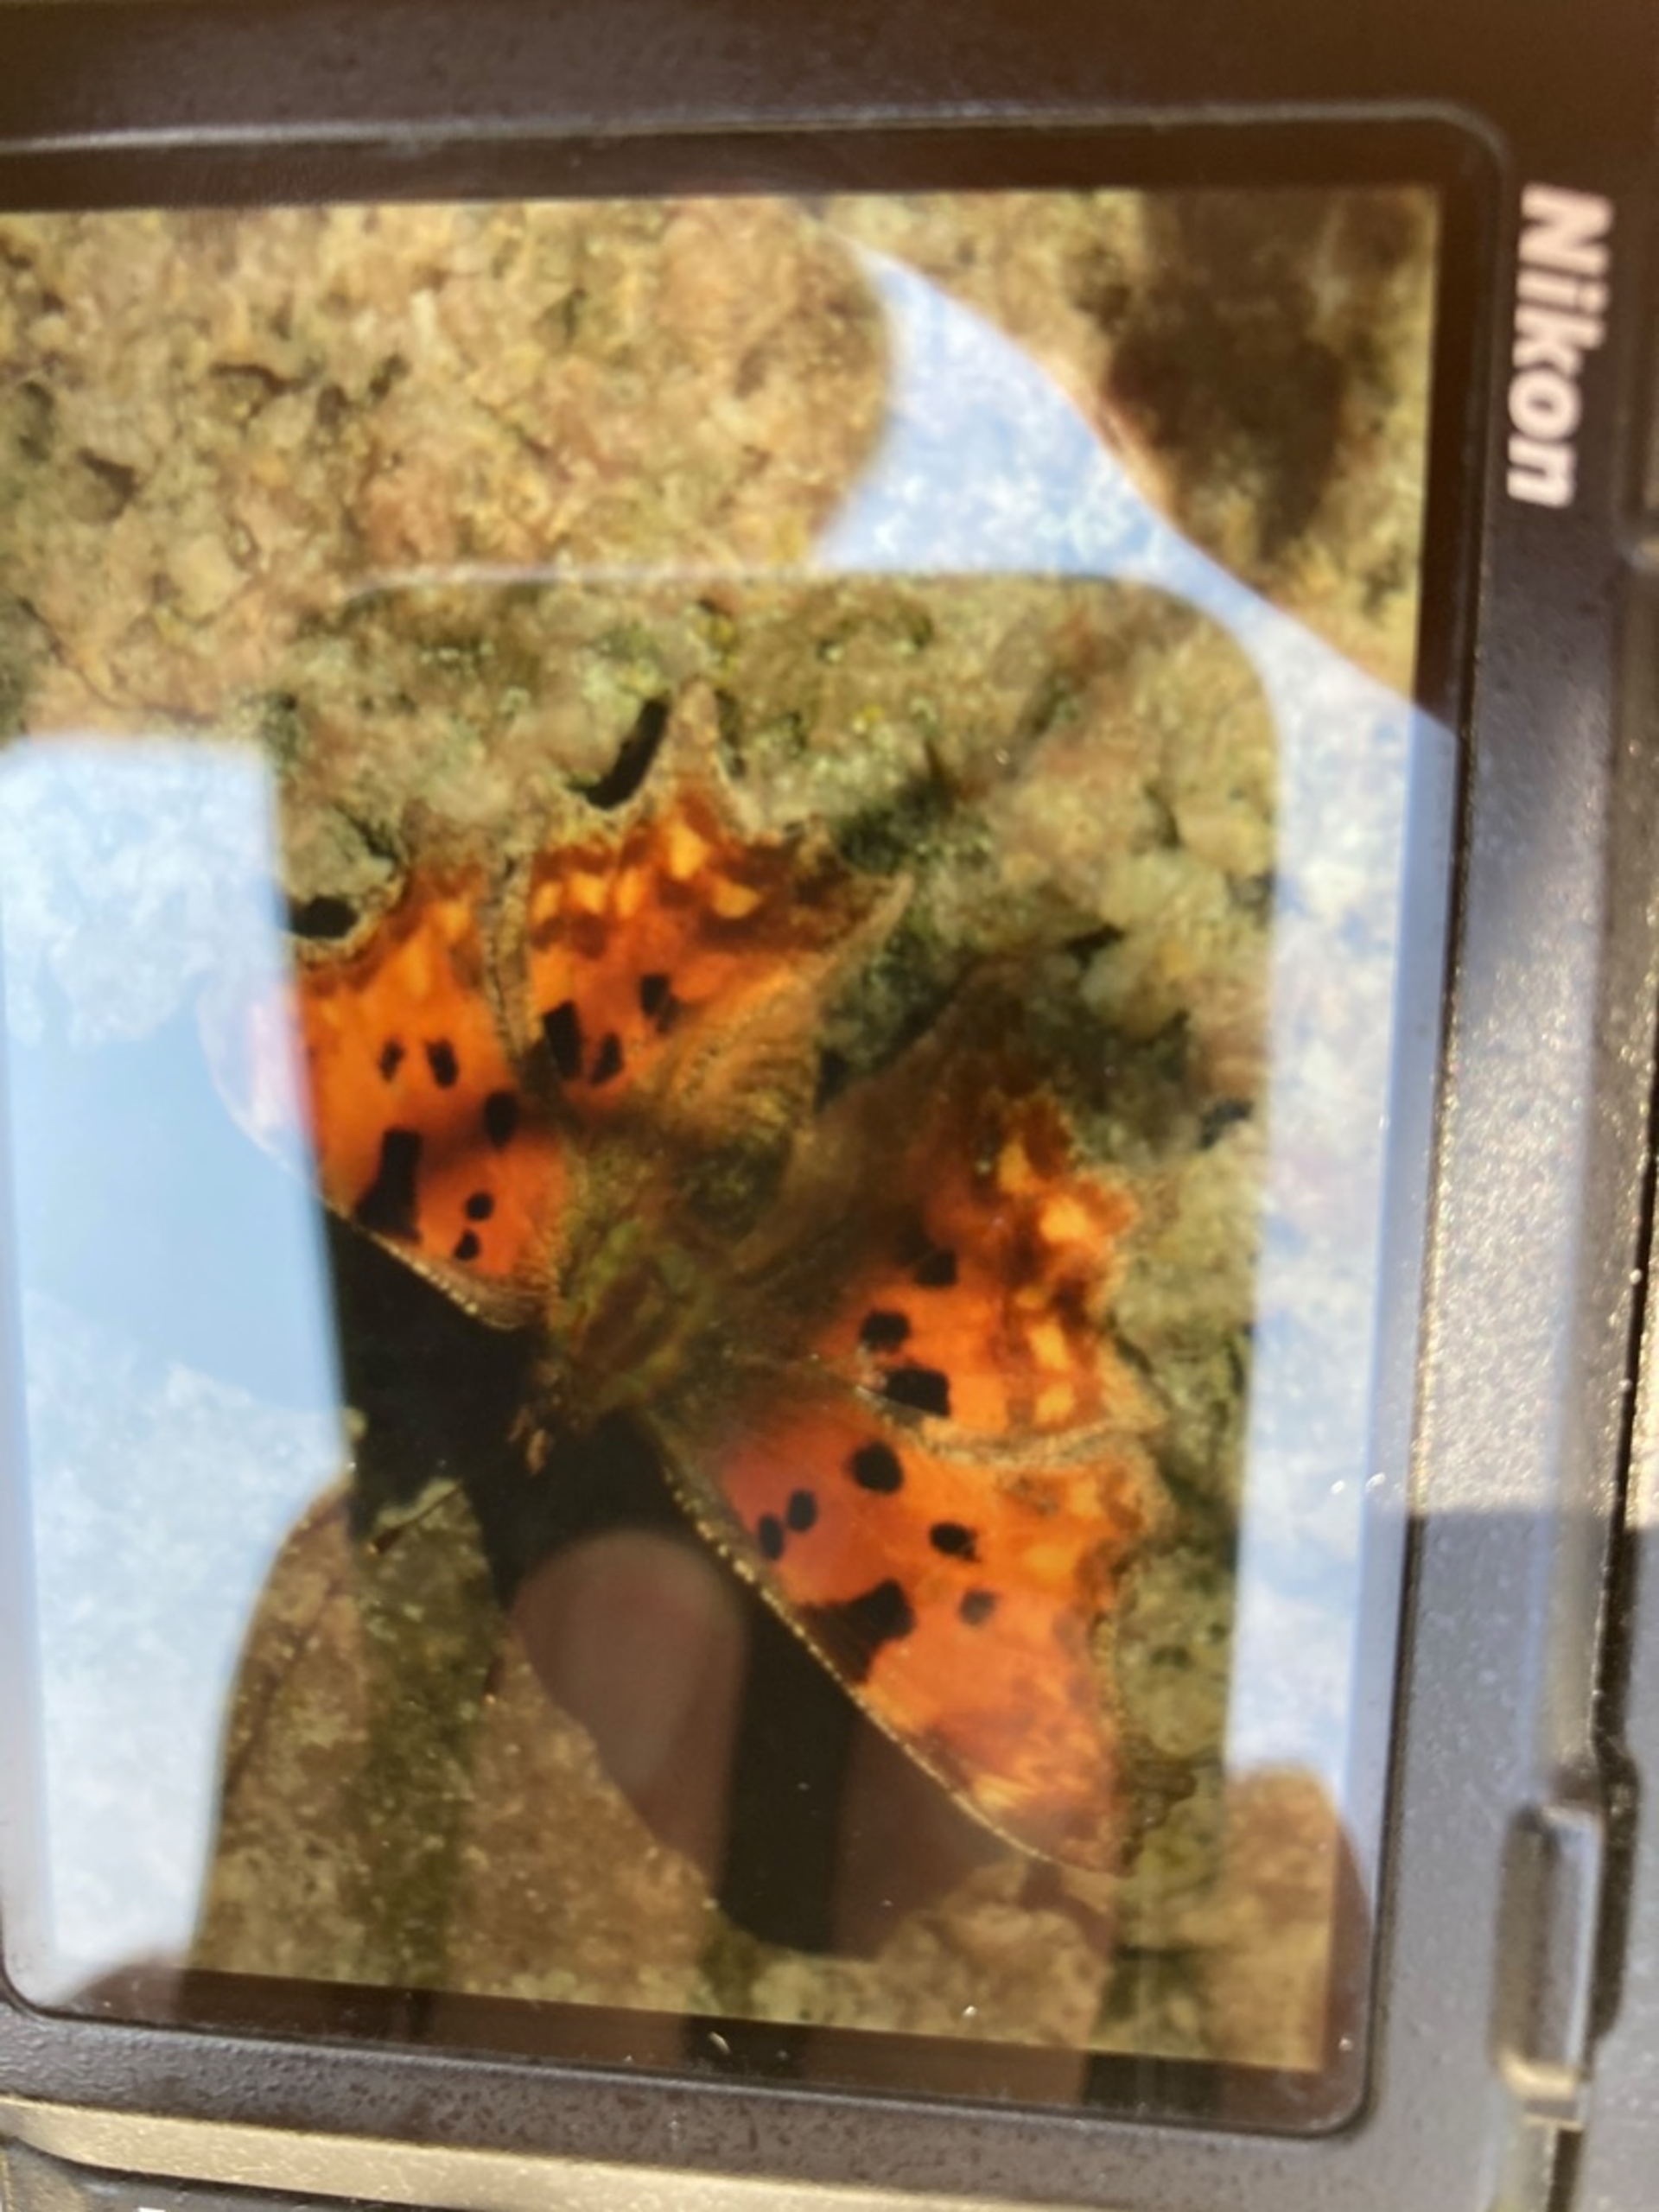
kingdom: Animalia
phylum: Arthropoda
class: Insecta
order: Lepidoptera
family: Nymphalidae
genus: Polygonia
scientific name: Polygonia c-album
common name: Det hvide C
